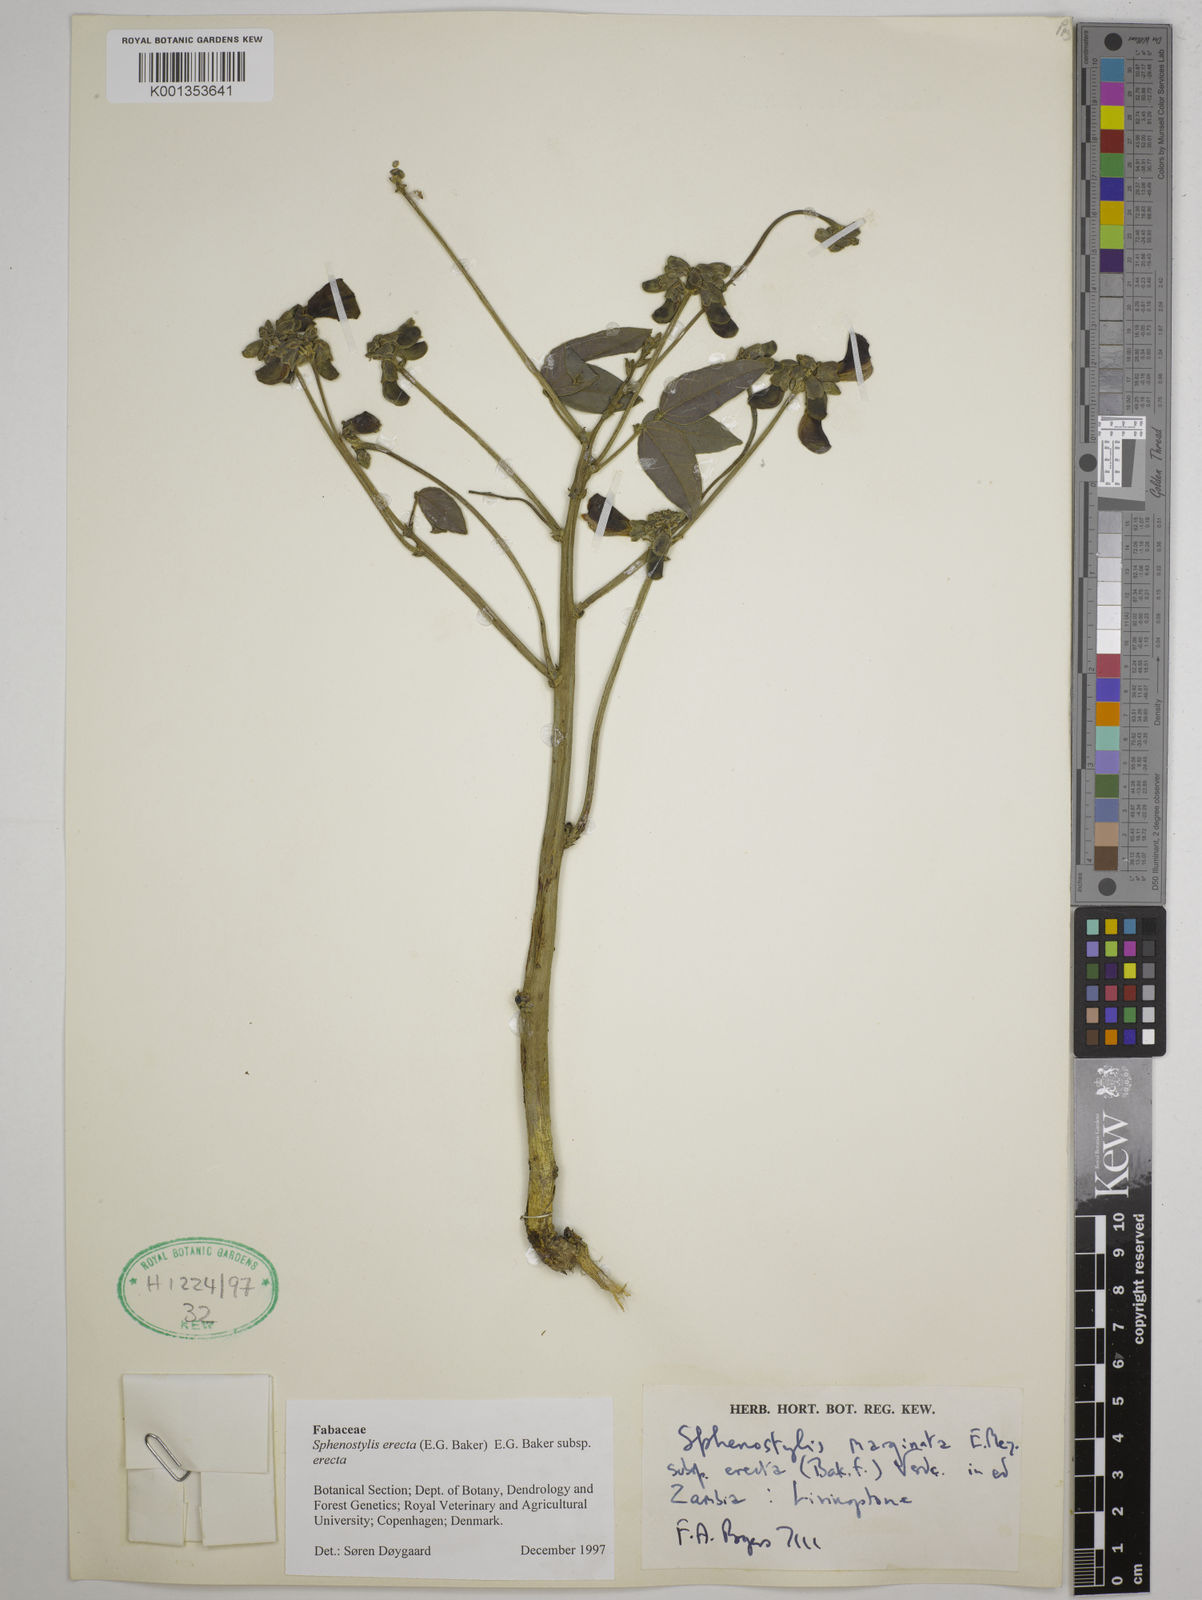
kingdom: Plantae
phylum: Tracheophyta
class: Magnoliopsida
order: Fabales
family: Fabaceae
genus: Sphenostylis
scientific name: Sphenostylis erecta
